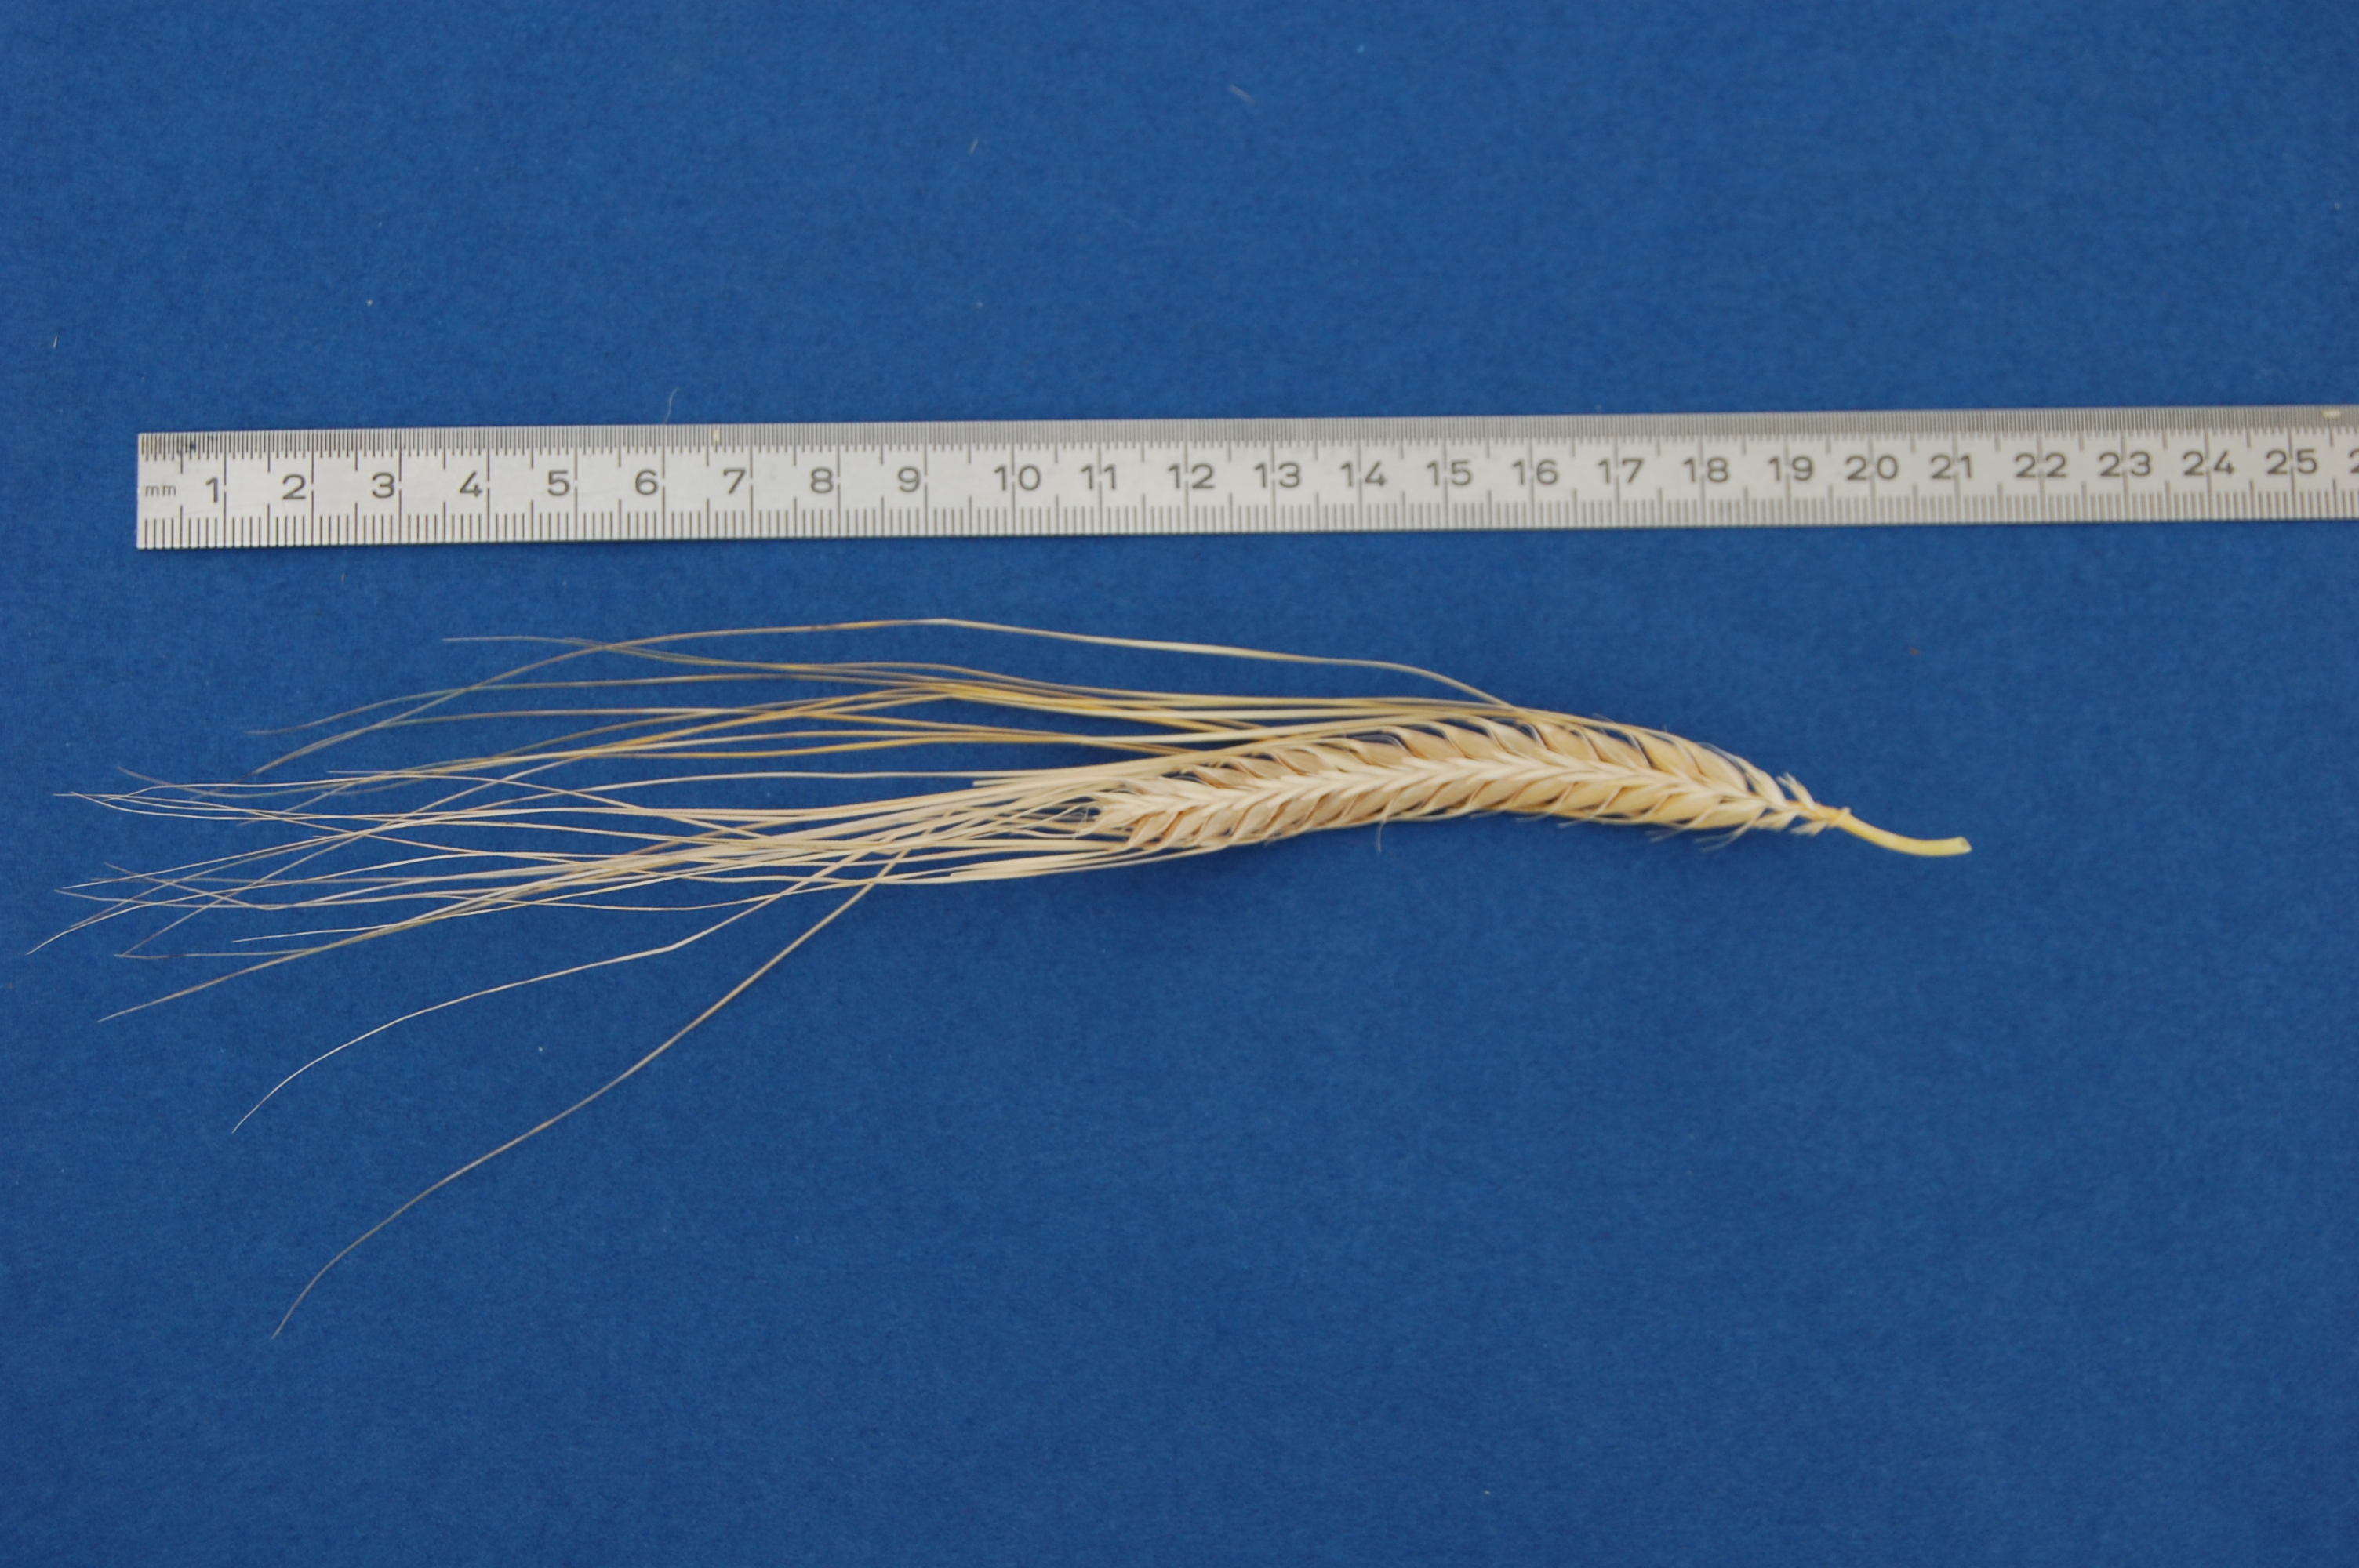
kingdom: Plantae
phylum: Tracheophyta
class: Liliopsida
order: Poales
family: Poaceae
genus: Hordeum
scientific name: Hordeum vulgare
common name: Common barley
